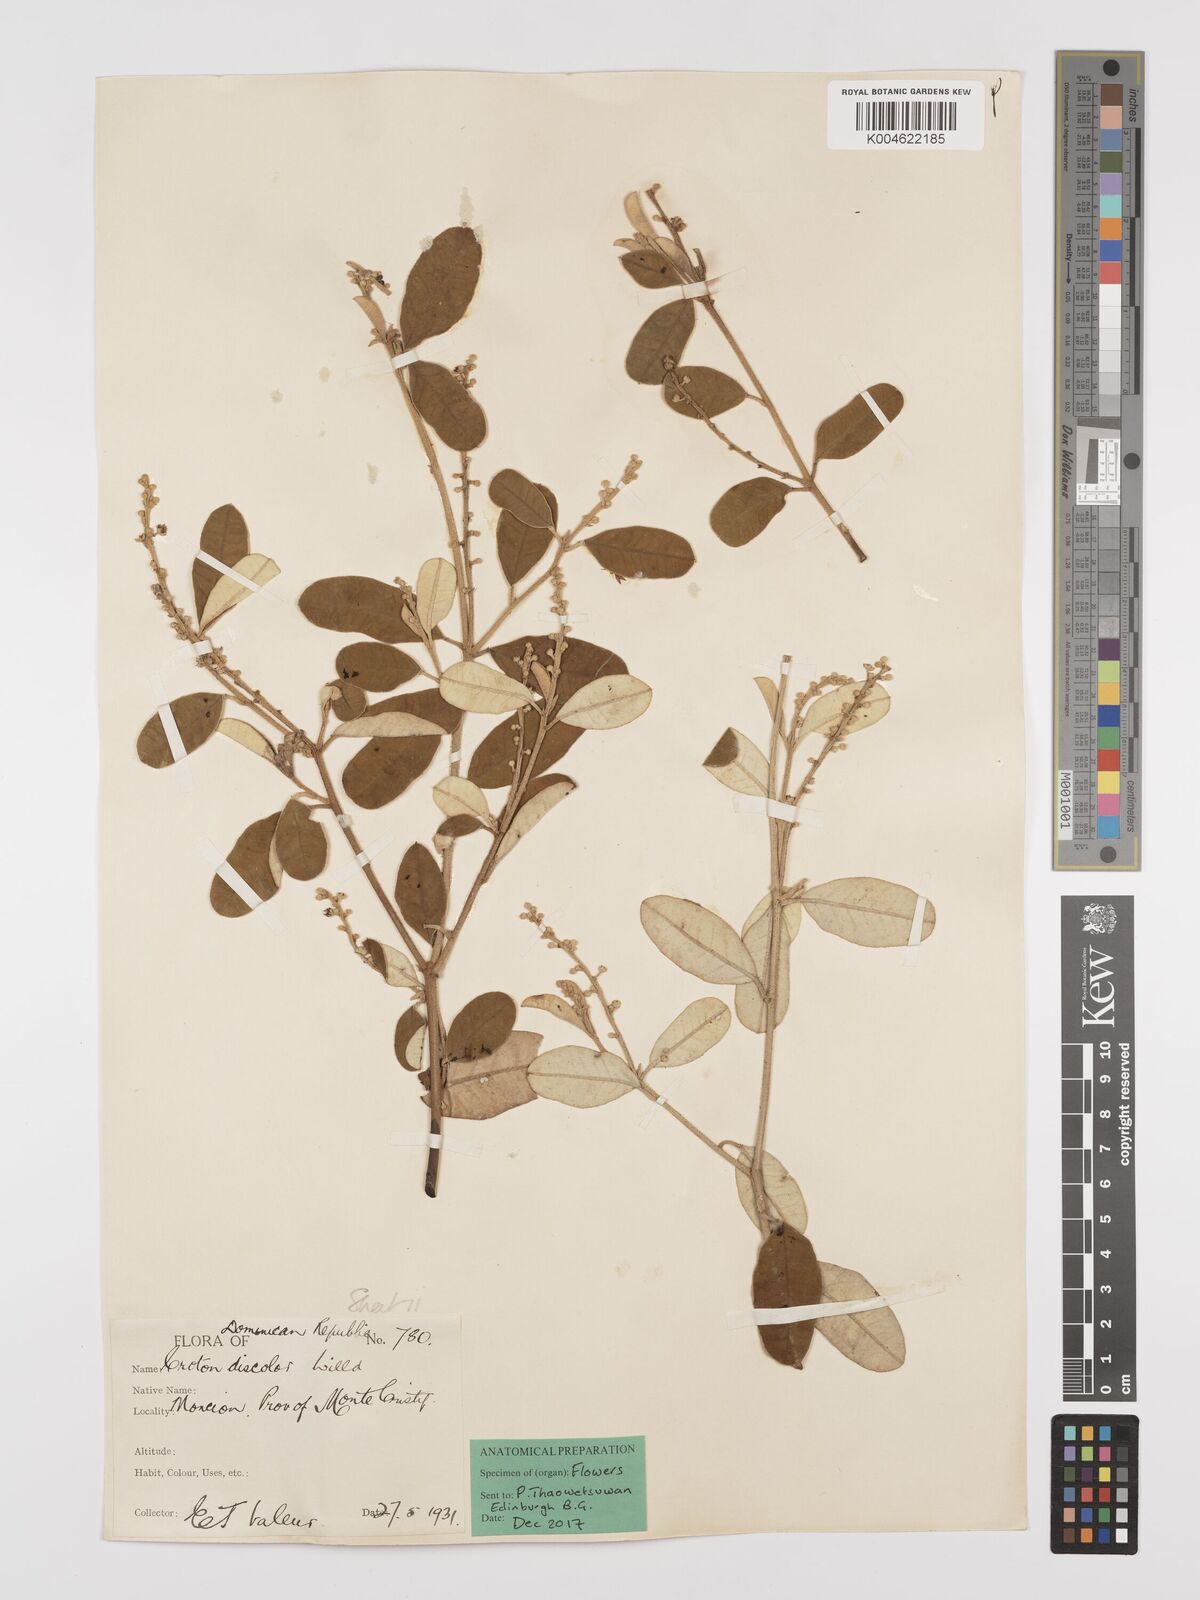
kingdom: Plantae
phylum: Tracheophyta
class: Magnoliopsida
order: Malpighiales
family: Euphorbiaceae
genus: Croton
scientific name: Croton
